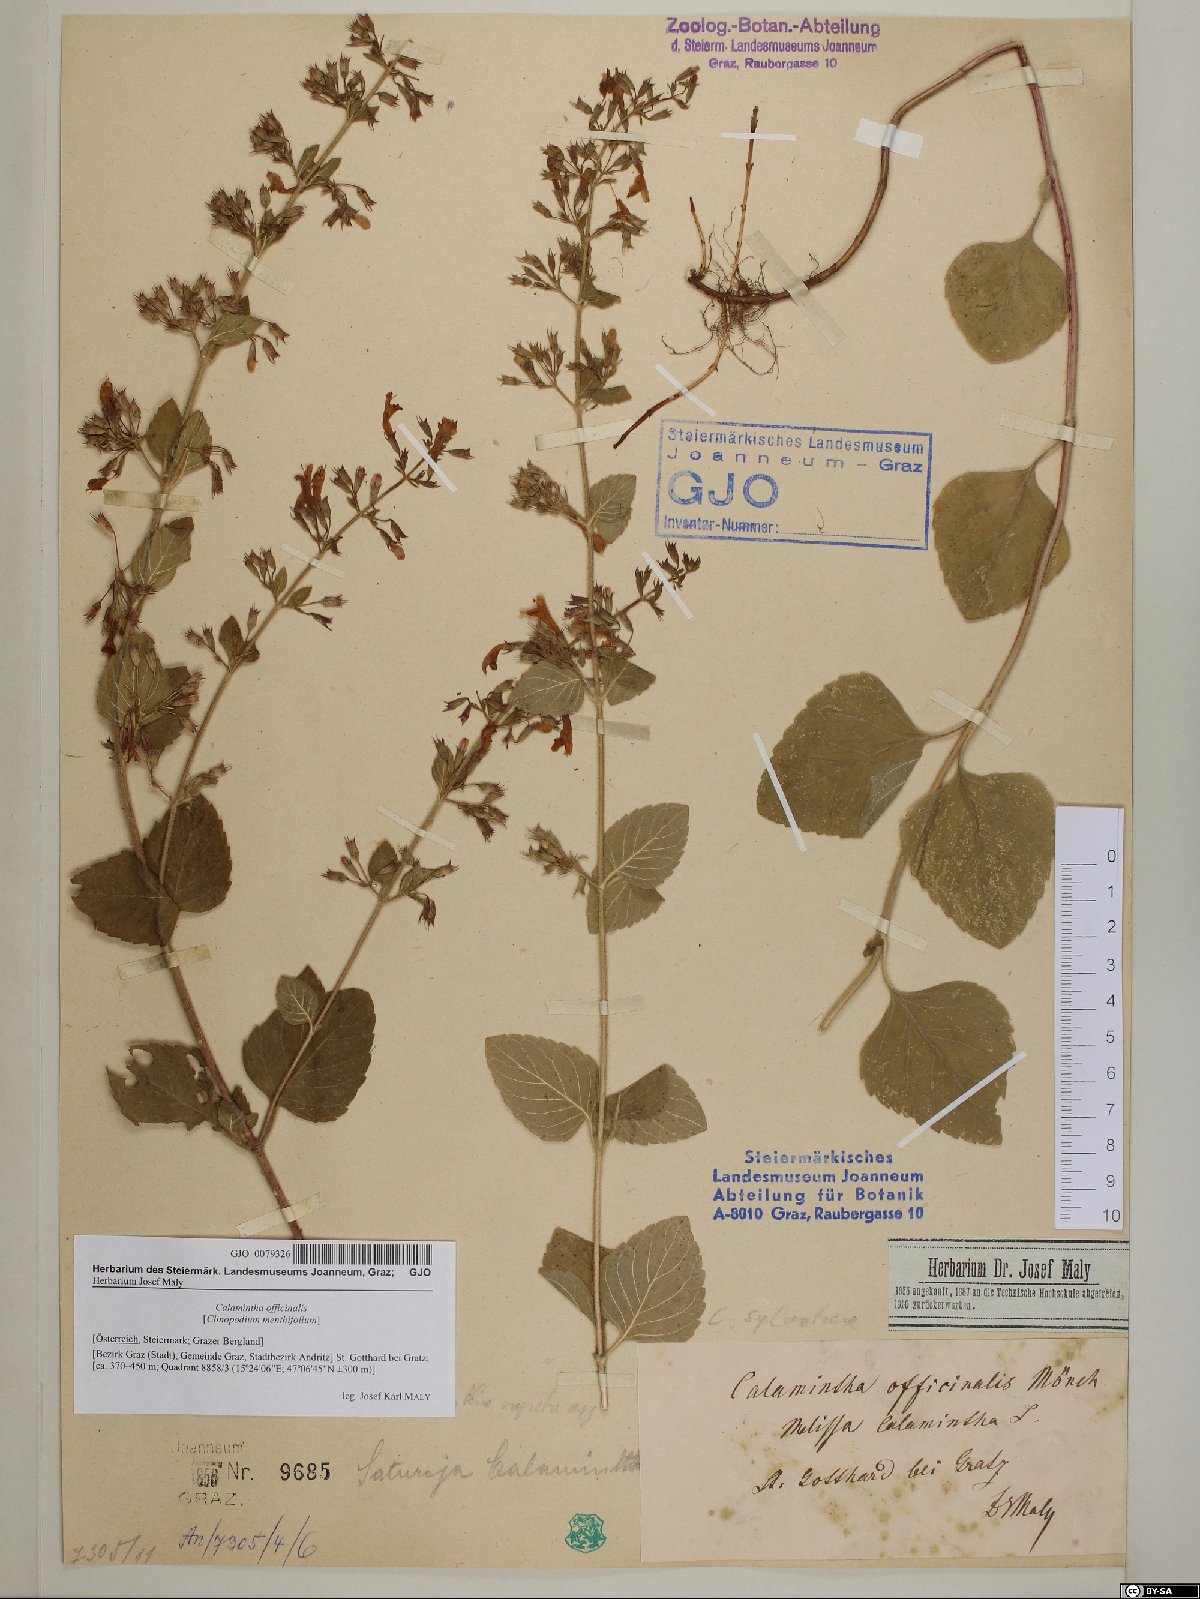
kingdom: Plantae
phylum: Tracheophyta
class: Magnoliopsida
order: Lamiales
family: Lamiaceae
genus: Clinopodium
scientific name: Clinopodium nepeta
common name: Lesser calamint
